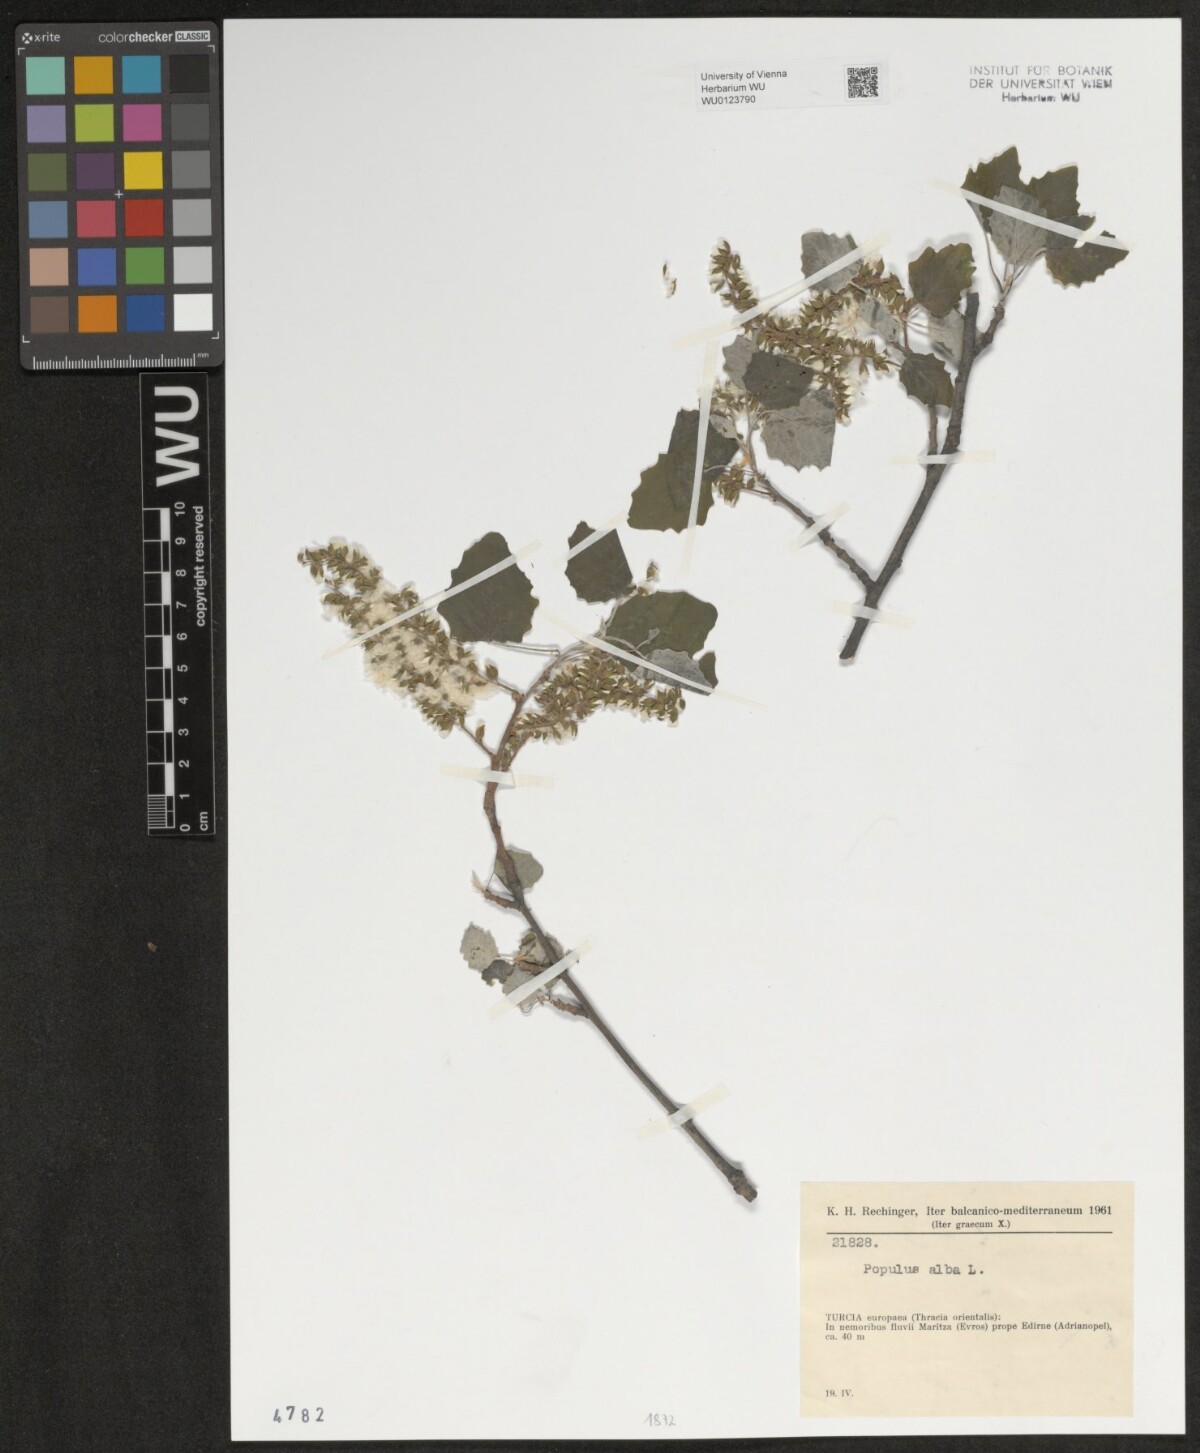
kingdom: Plantae
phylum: Tracheophyta
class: Magnoliopsida
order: Malpighiales
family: Salicaceae
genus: Populus
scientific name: Populus alba
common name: White poplar
